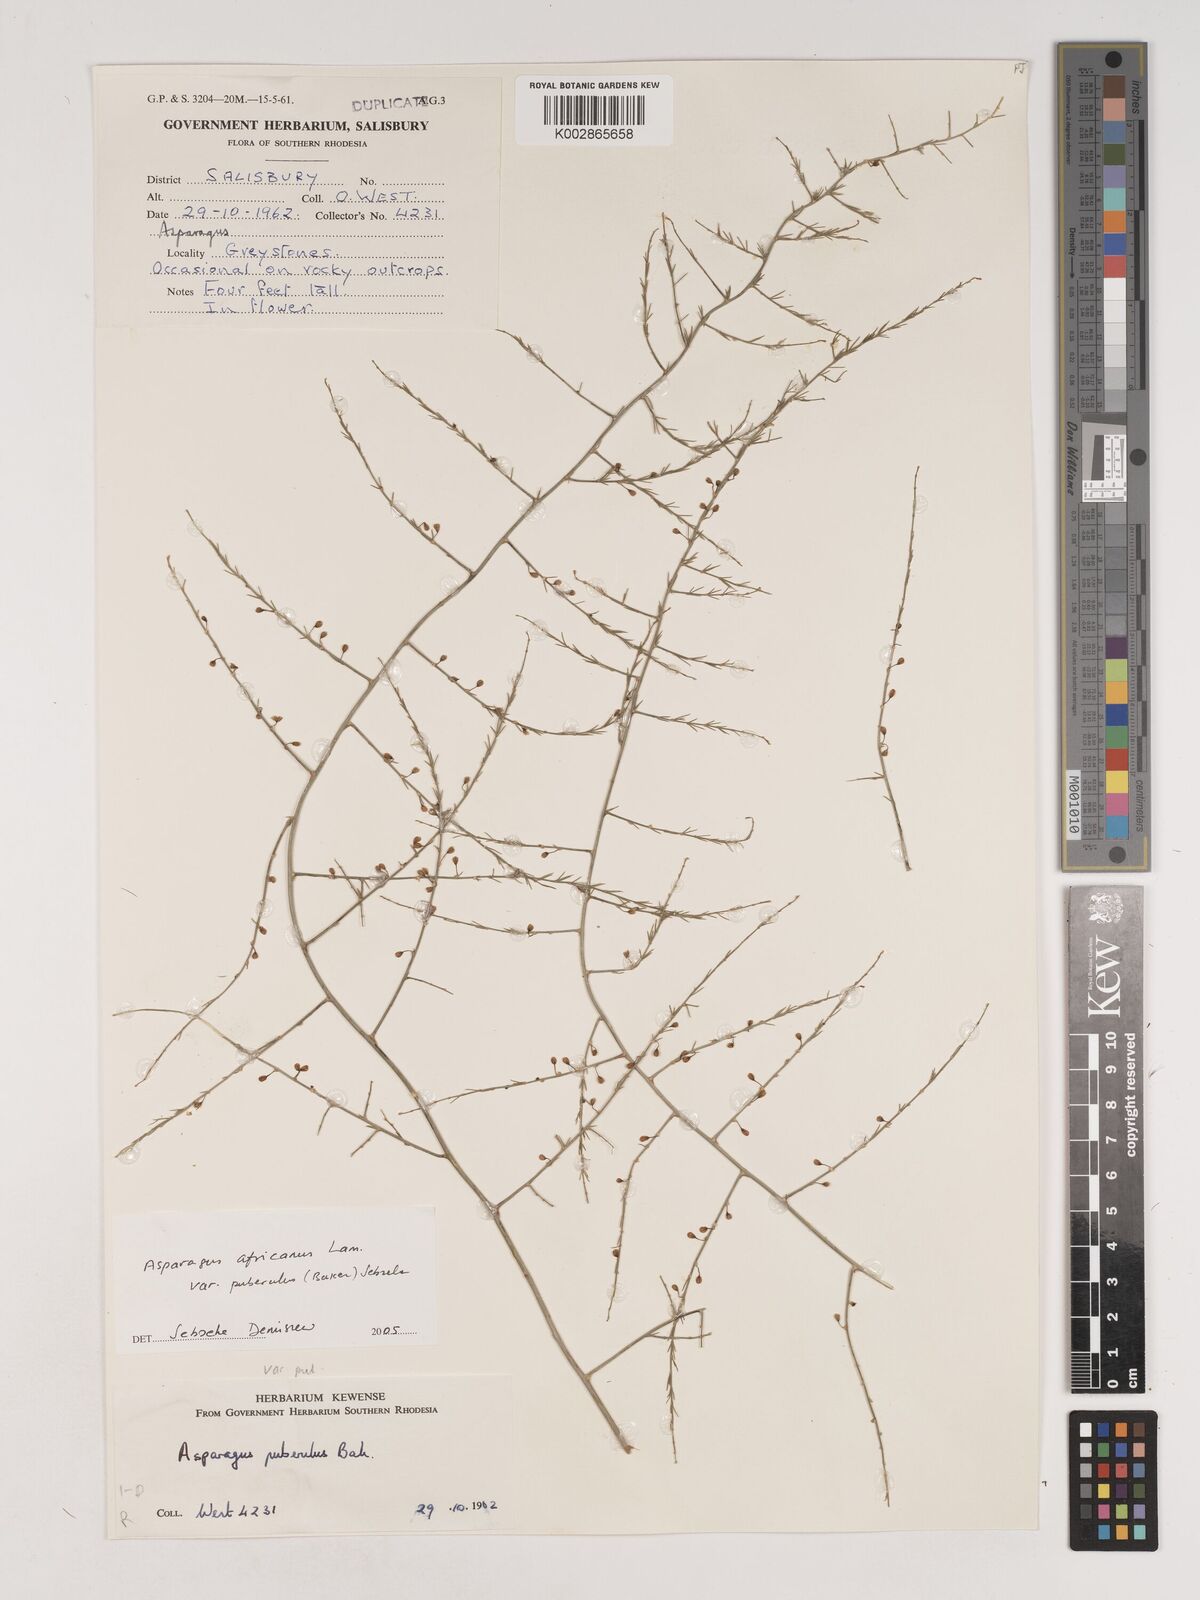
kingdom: Plantae
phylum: Tracheophyta
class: Liliopsida
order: Asparagales
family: Asparagaceae
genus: Asparagus
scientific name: Asparagus africanus
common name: Asparagus-fern
